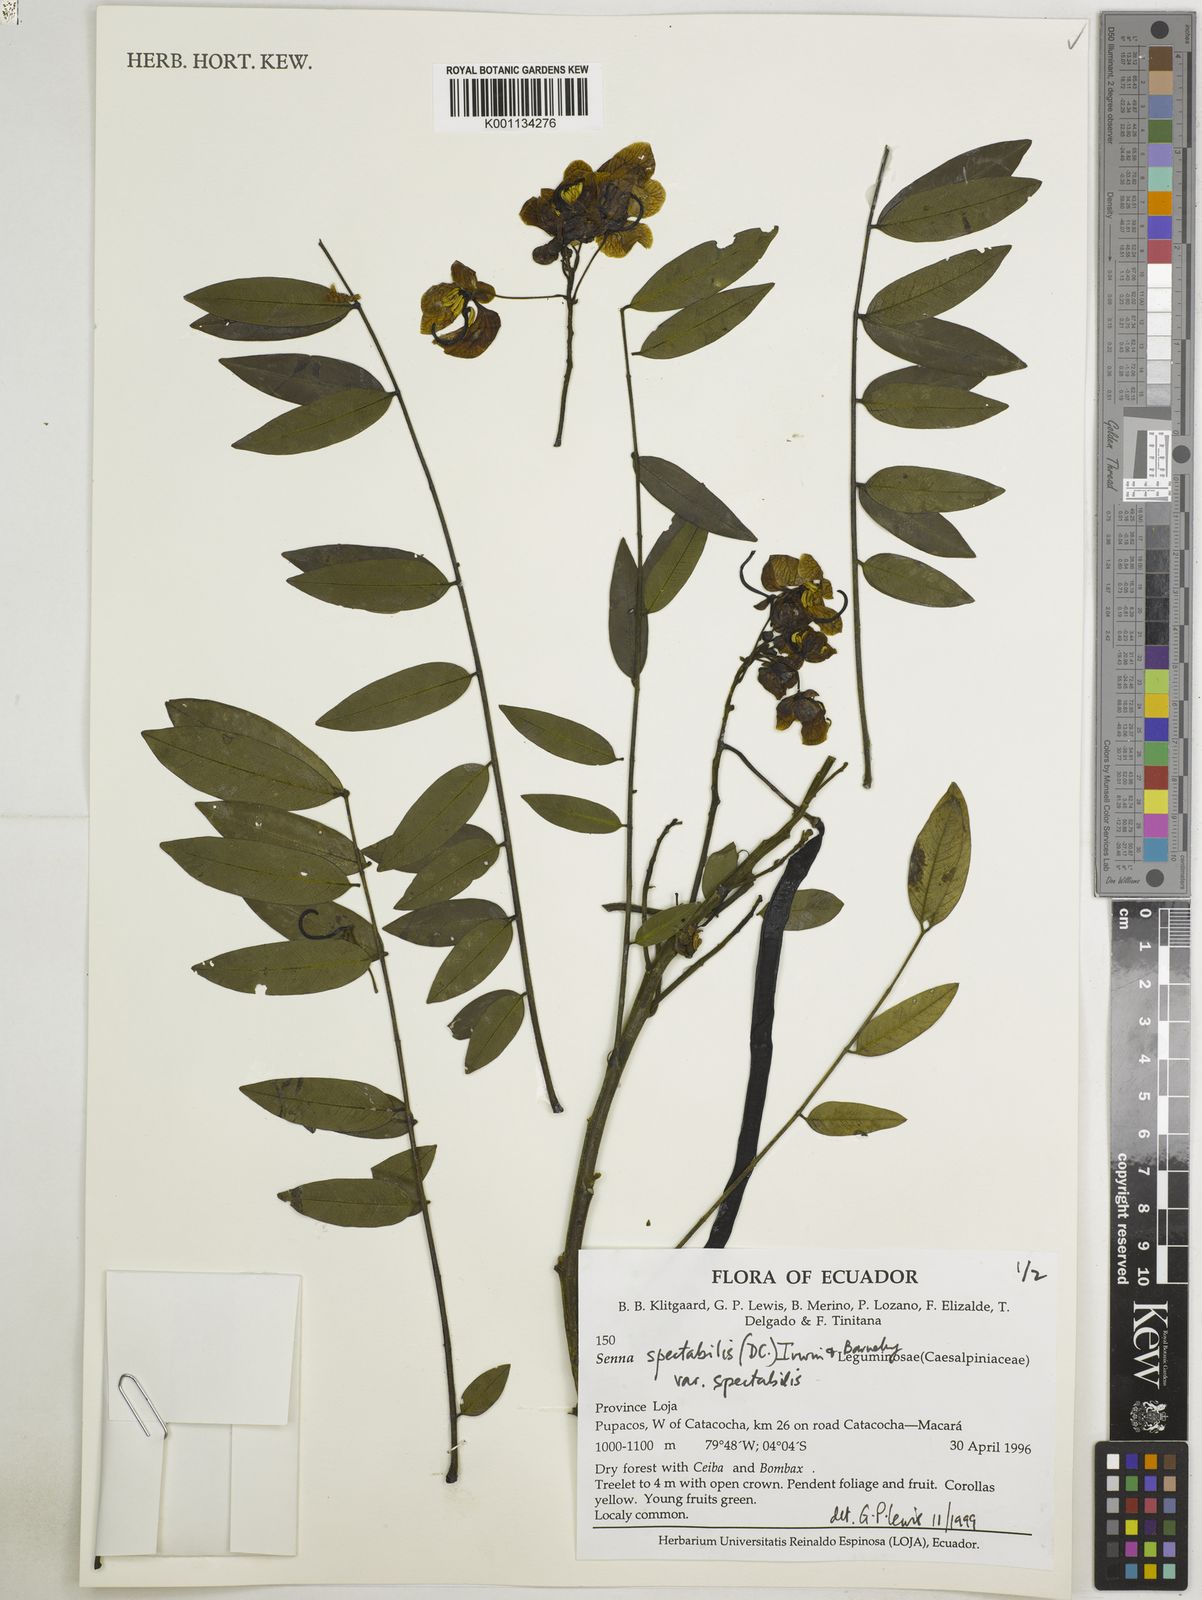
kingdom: Plantae
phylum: Tracheophyta
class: Magnoliopsida
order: Fabales
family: Fabaceae
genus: Senna
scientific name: Senna spectabilis
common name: Casia amarilla
